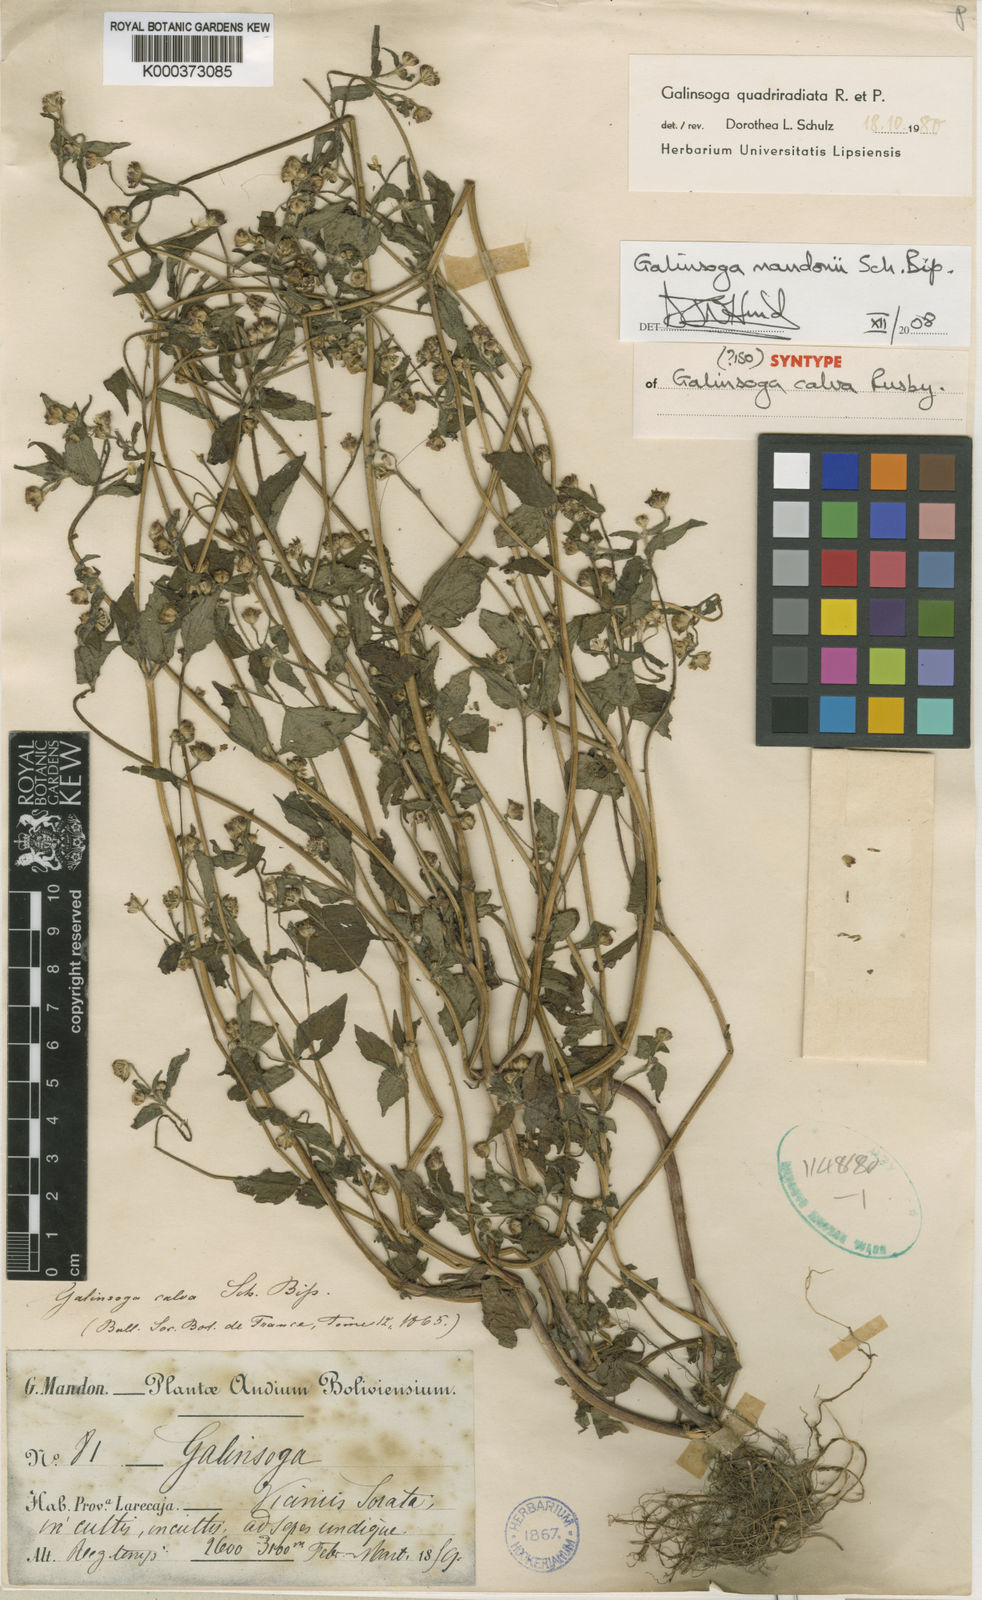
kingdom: Plantae
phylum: Tracheophyta
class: Magnoliopsida
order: Asterales
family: Asteraceae
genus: Galinsoga
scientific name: Galinsoga unxioides
